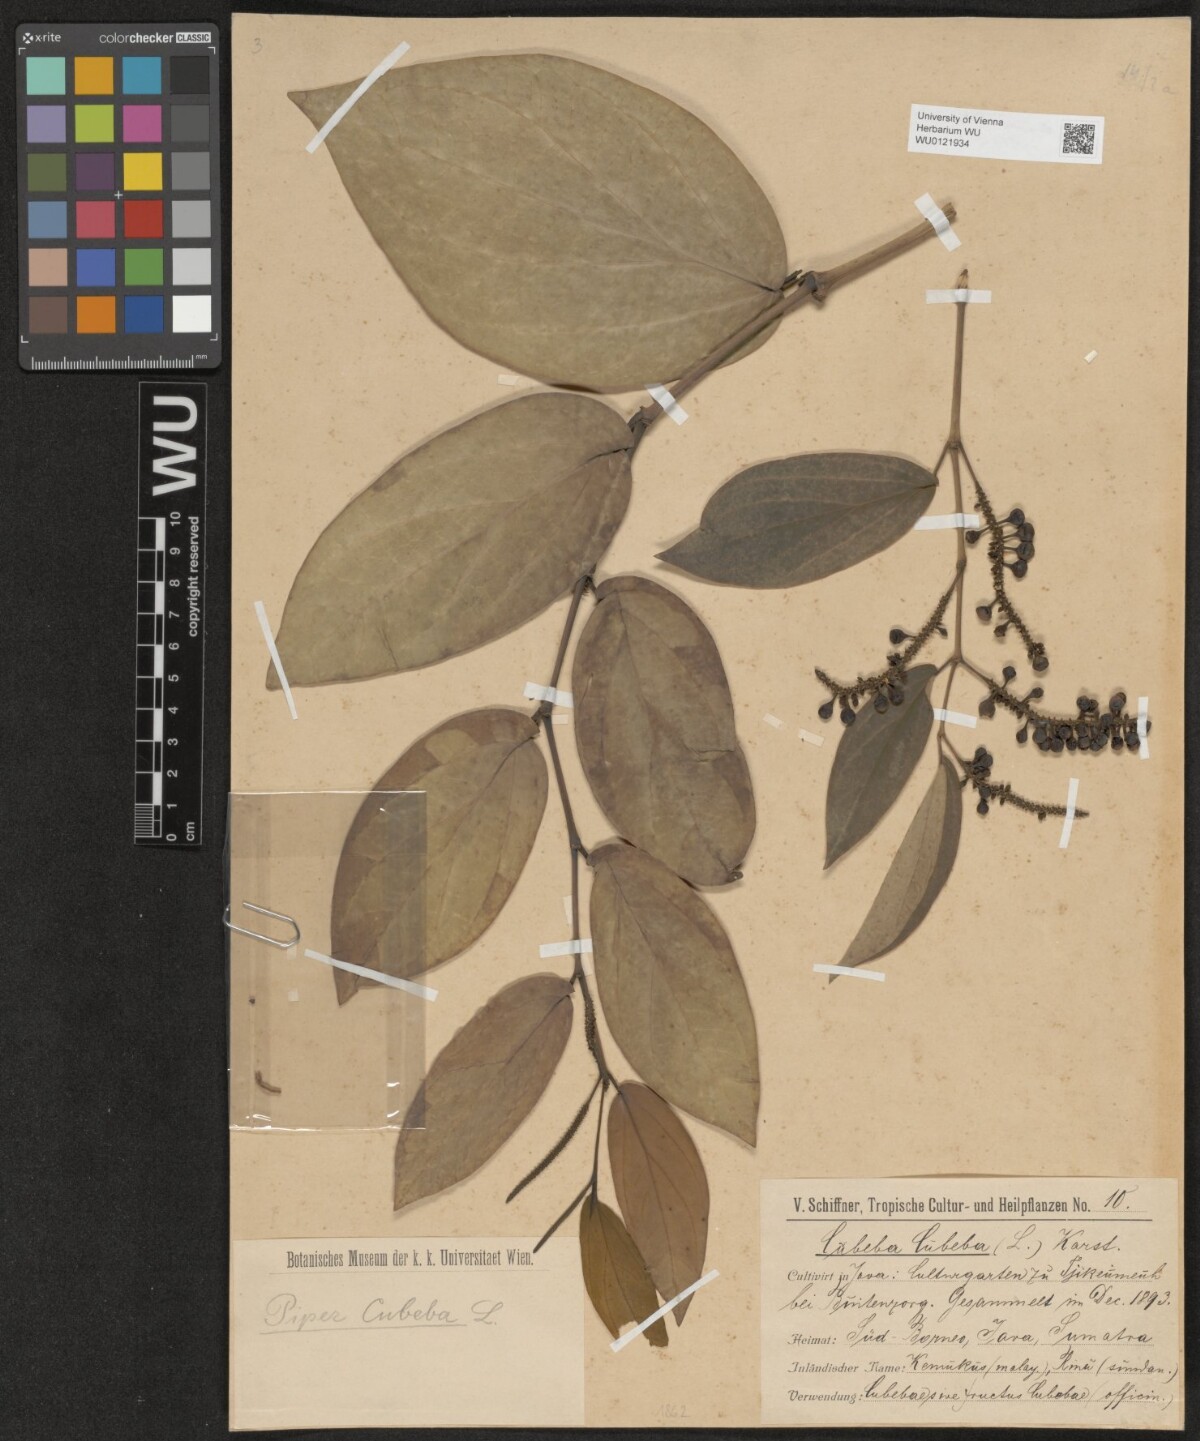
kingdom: Plantae
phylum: Tracheophyta
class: Magnoliopsida
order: Piperales
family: Piperaceae
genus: Piper
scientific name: Piper cubeba
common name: Cubeb
